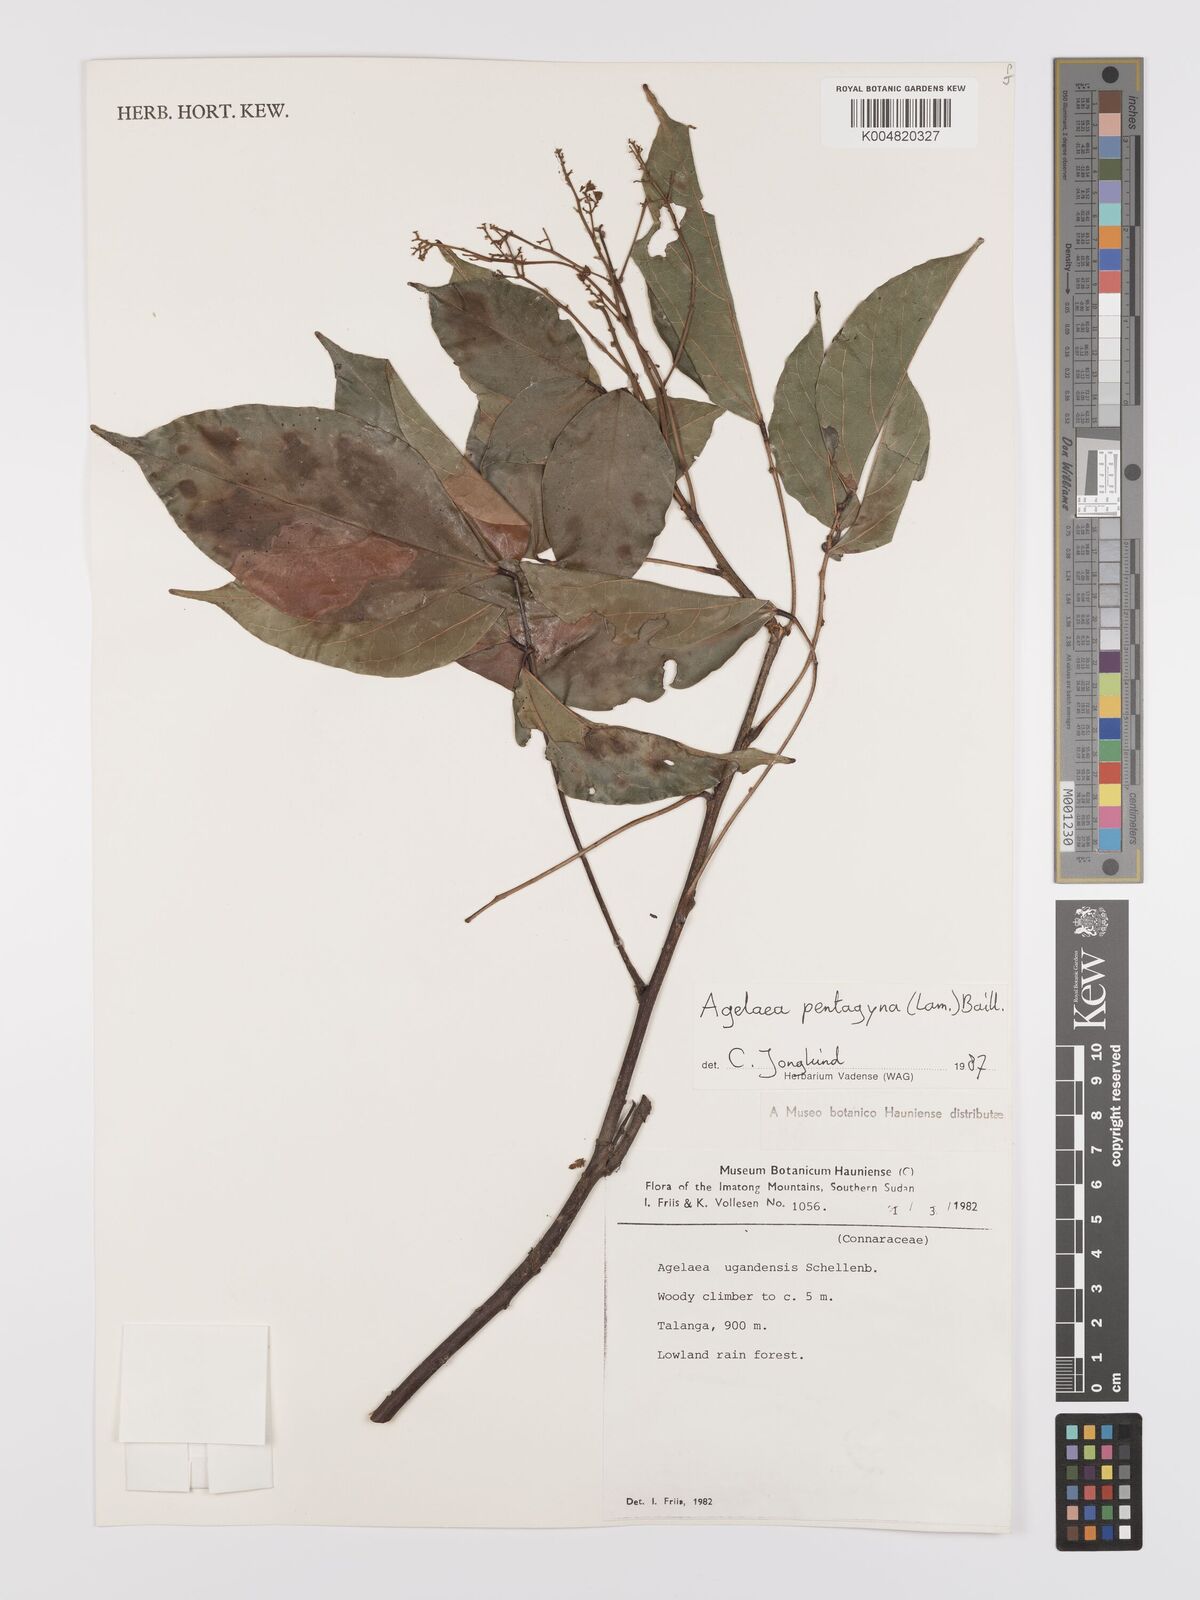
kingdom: Plantae
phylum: Tracheophyta
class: Magnoliopsida
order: Oxalidales
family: Connaraceae
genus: Agelaea
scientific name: Agelaea pentagyna
